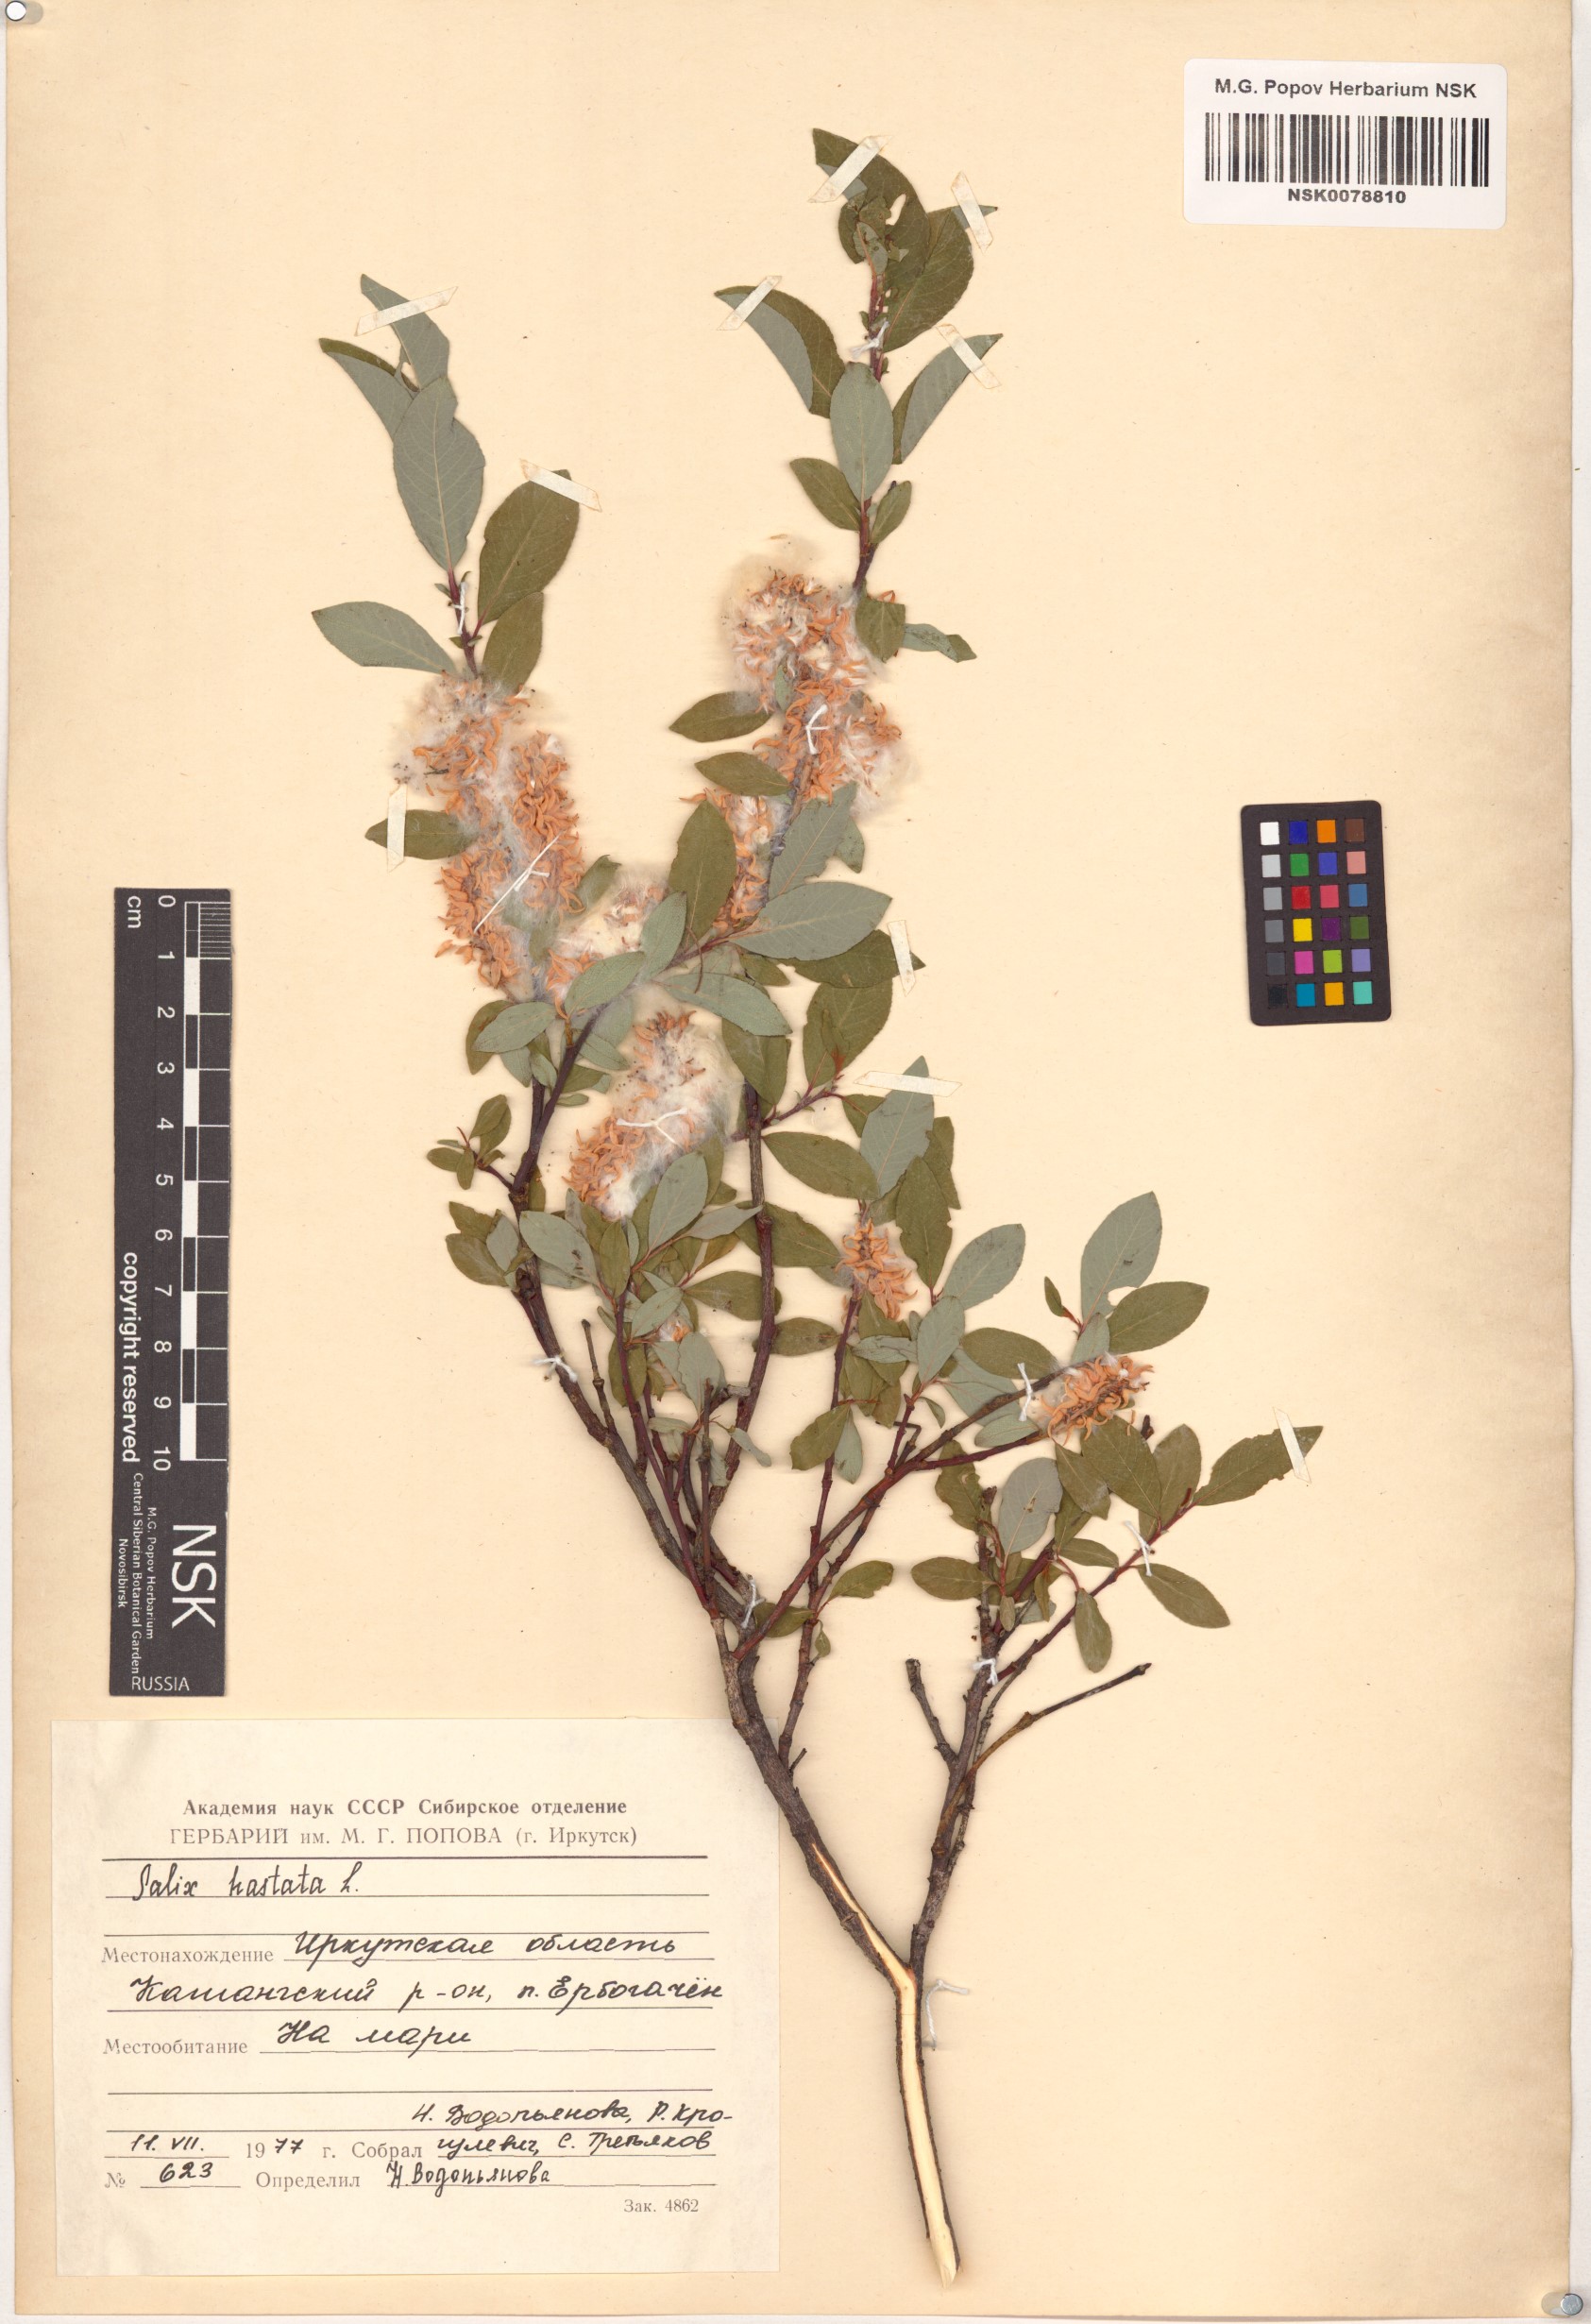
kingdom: Plantae
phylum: Tracheophyta
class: Magnoliopsida
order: Malpighiales
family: Salicaceae
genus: Salix
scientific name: Salix hastata
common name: Halberd willow
